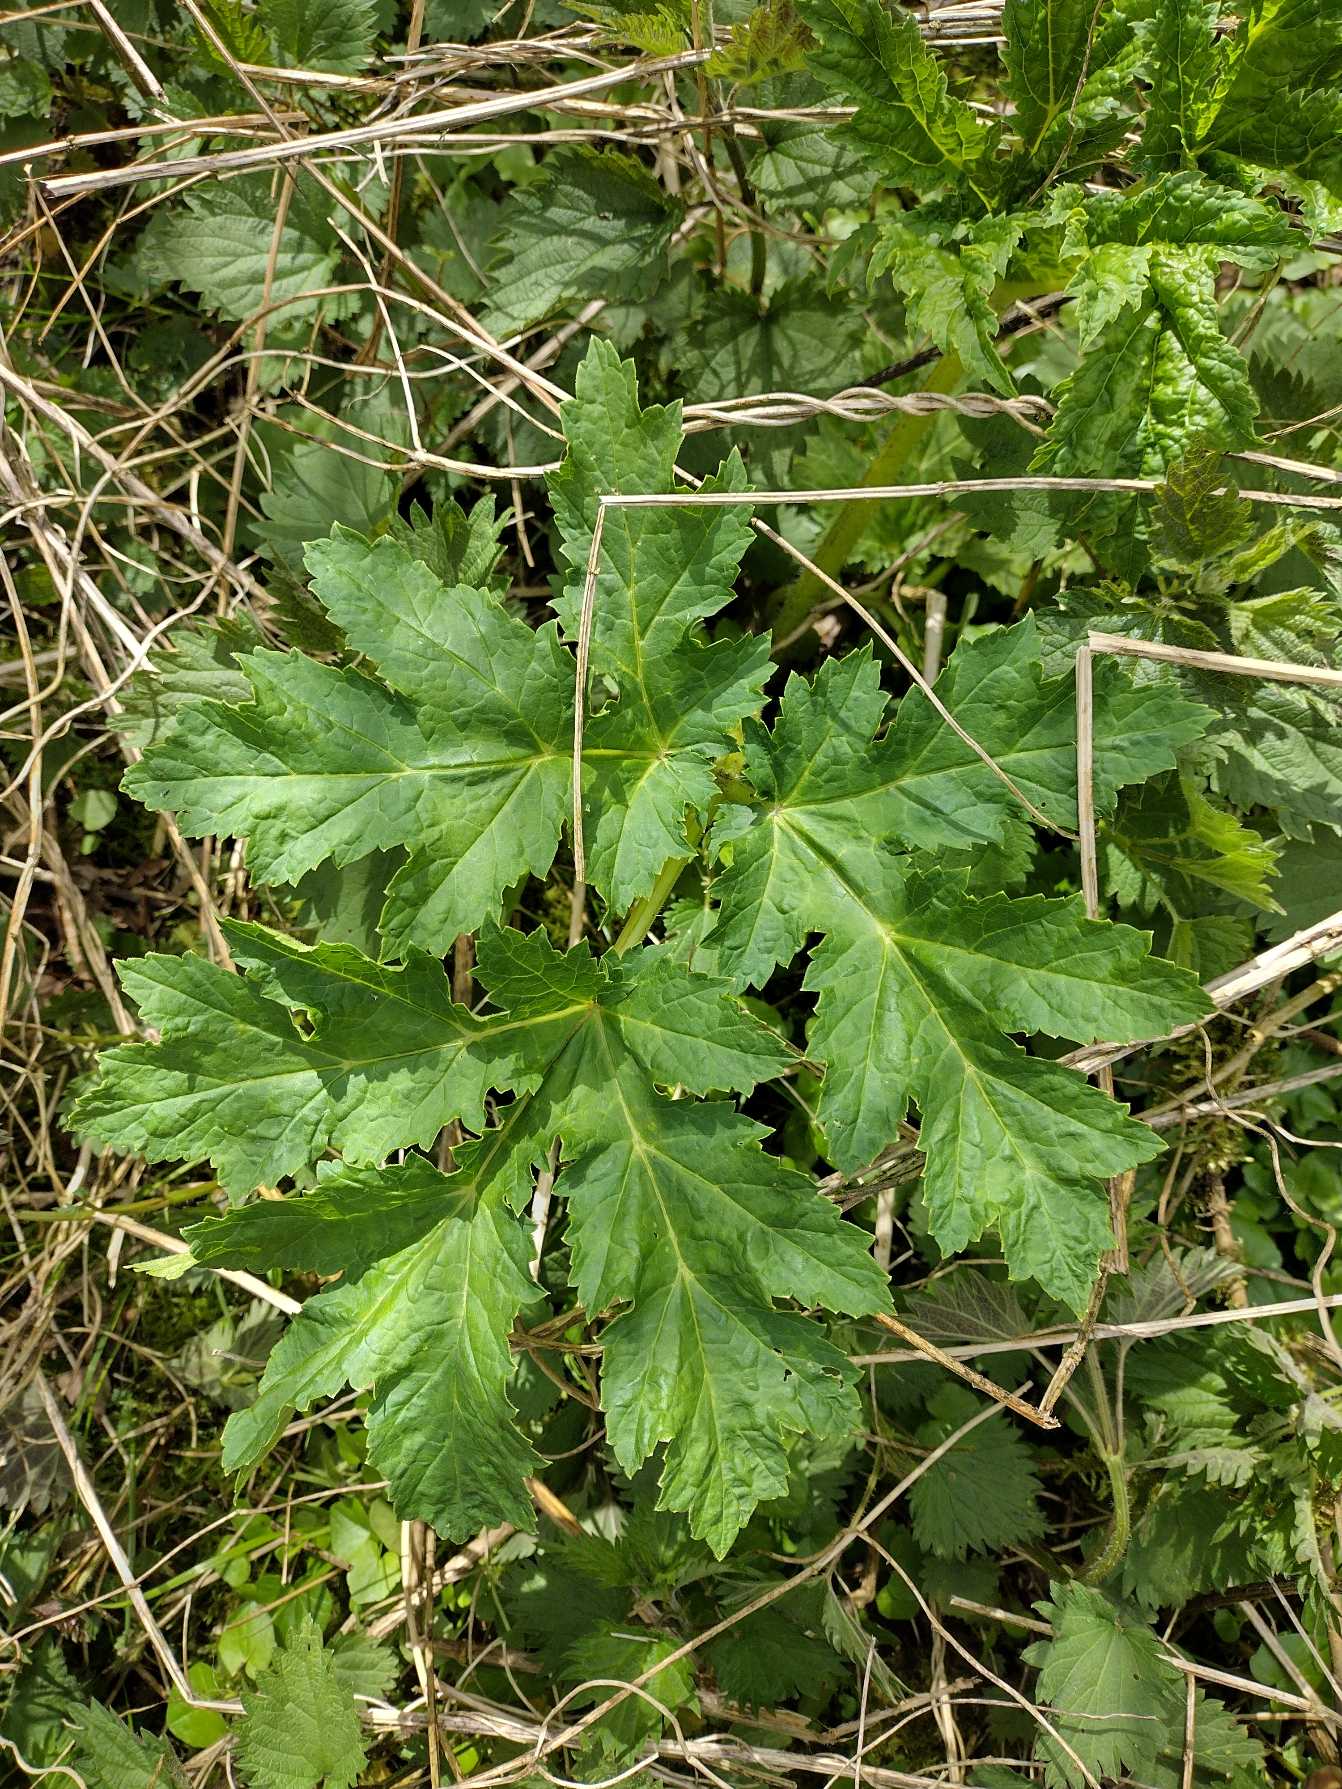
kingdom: Plantae
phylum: Tracheophyta
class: Magnoliopsida
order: Apiales
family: Apiaceae
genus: Heracleum
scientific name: Heracleum mantegazzianum
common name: Kæmpe-bjørneklo
